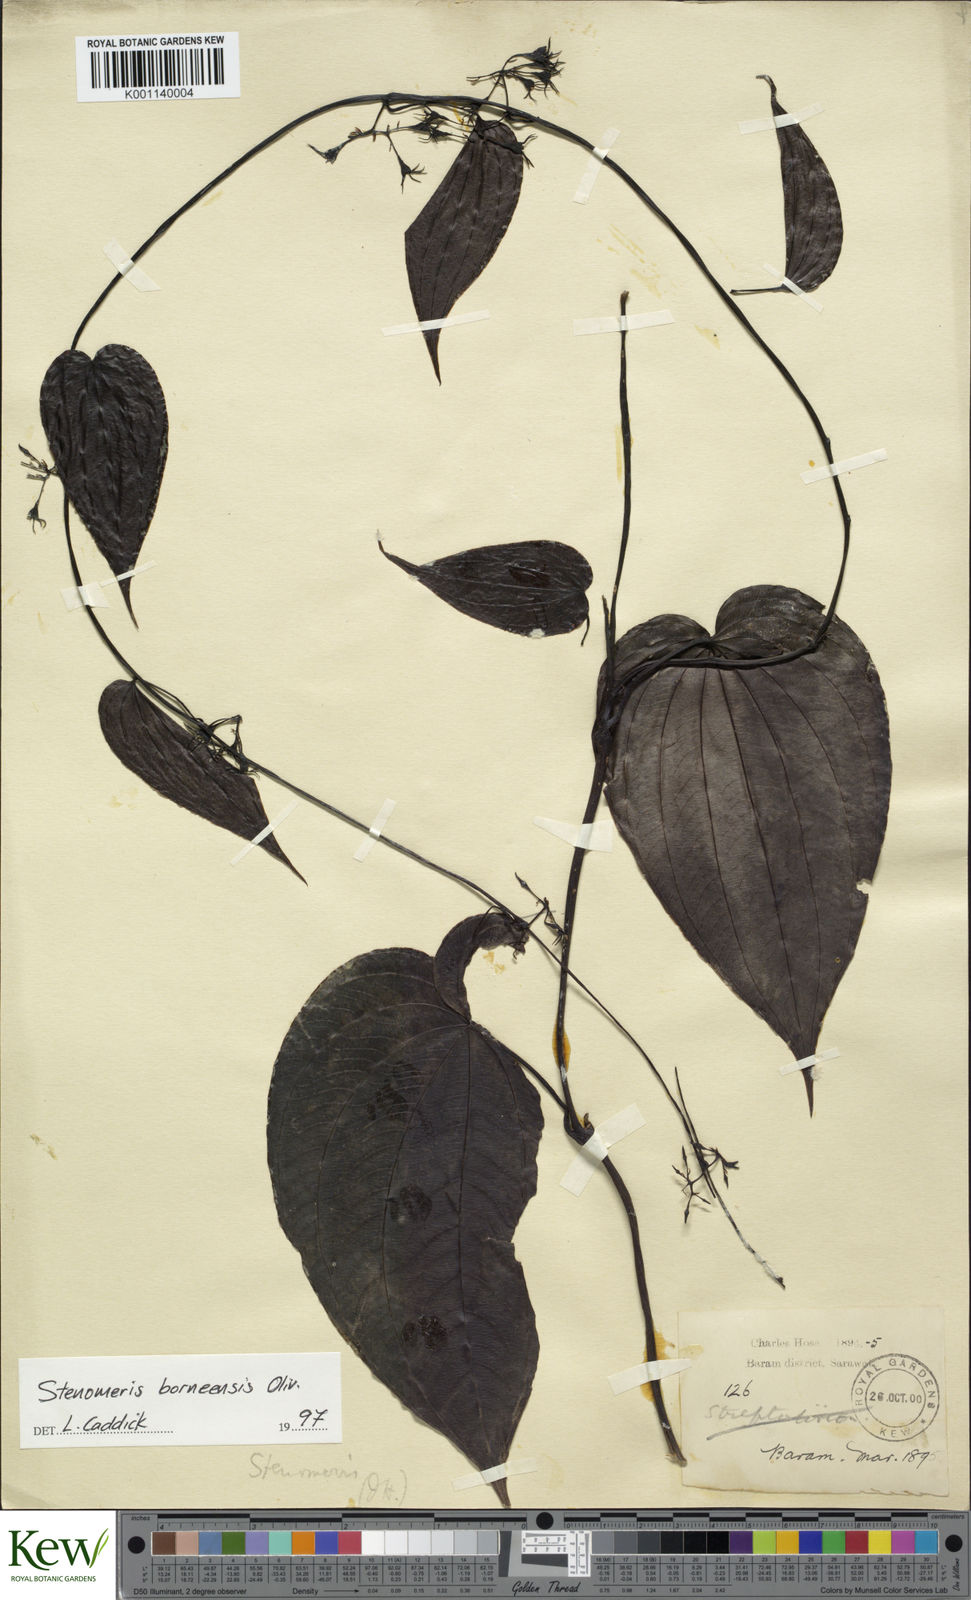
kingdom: Plantae
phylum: Tracheophyta
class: Liliopsida
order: Dioscoreales
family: Dioscoreaceae
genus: Stenomeris
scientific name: Stenomeris borneensis
